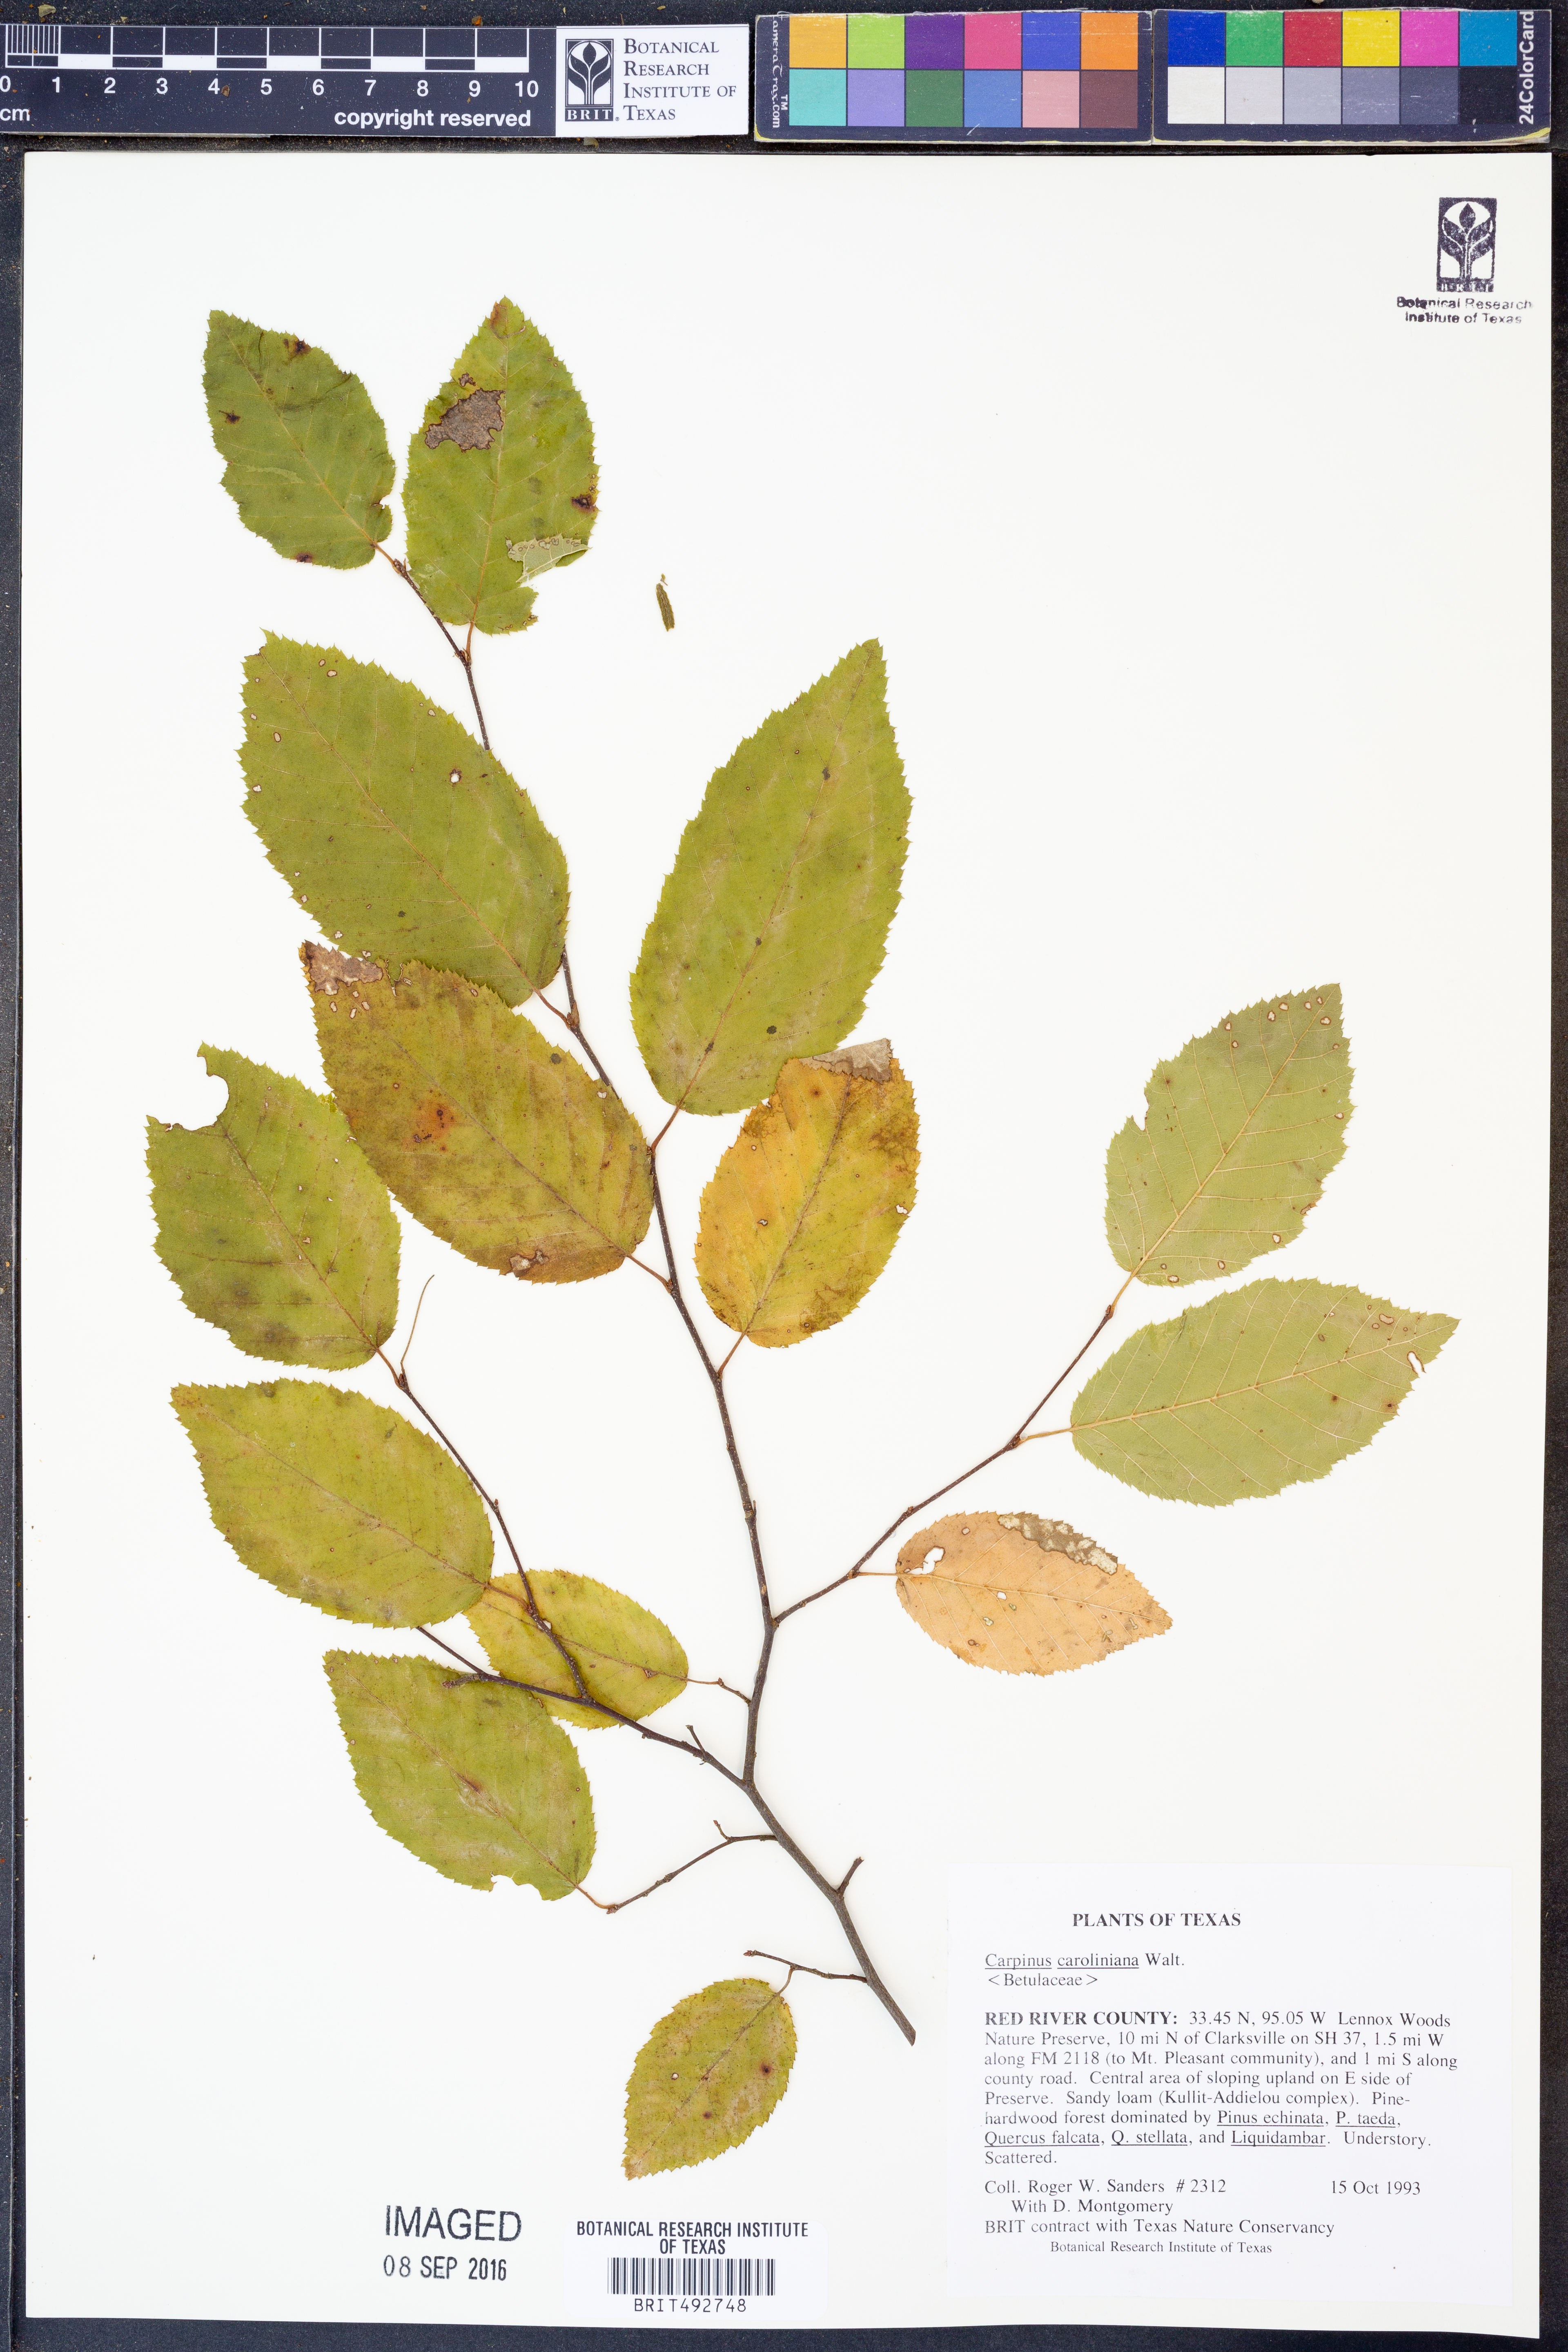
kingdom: Plantae
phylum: Tracheophyta
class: Magnoliopsida
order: Fagales
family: Betulaceae
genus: Carpinus
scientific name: Carpinus caroliniana
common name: American hornbeam
